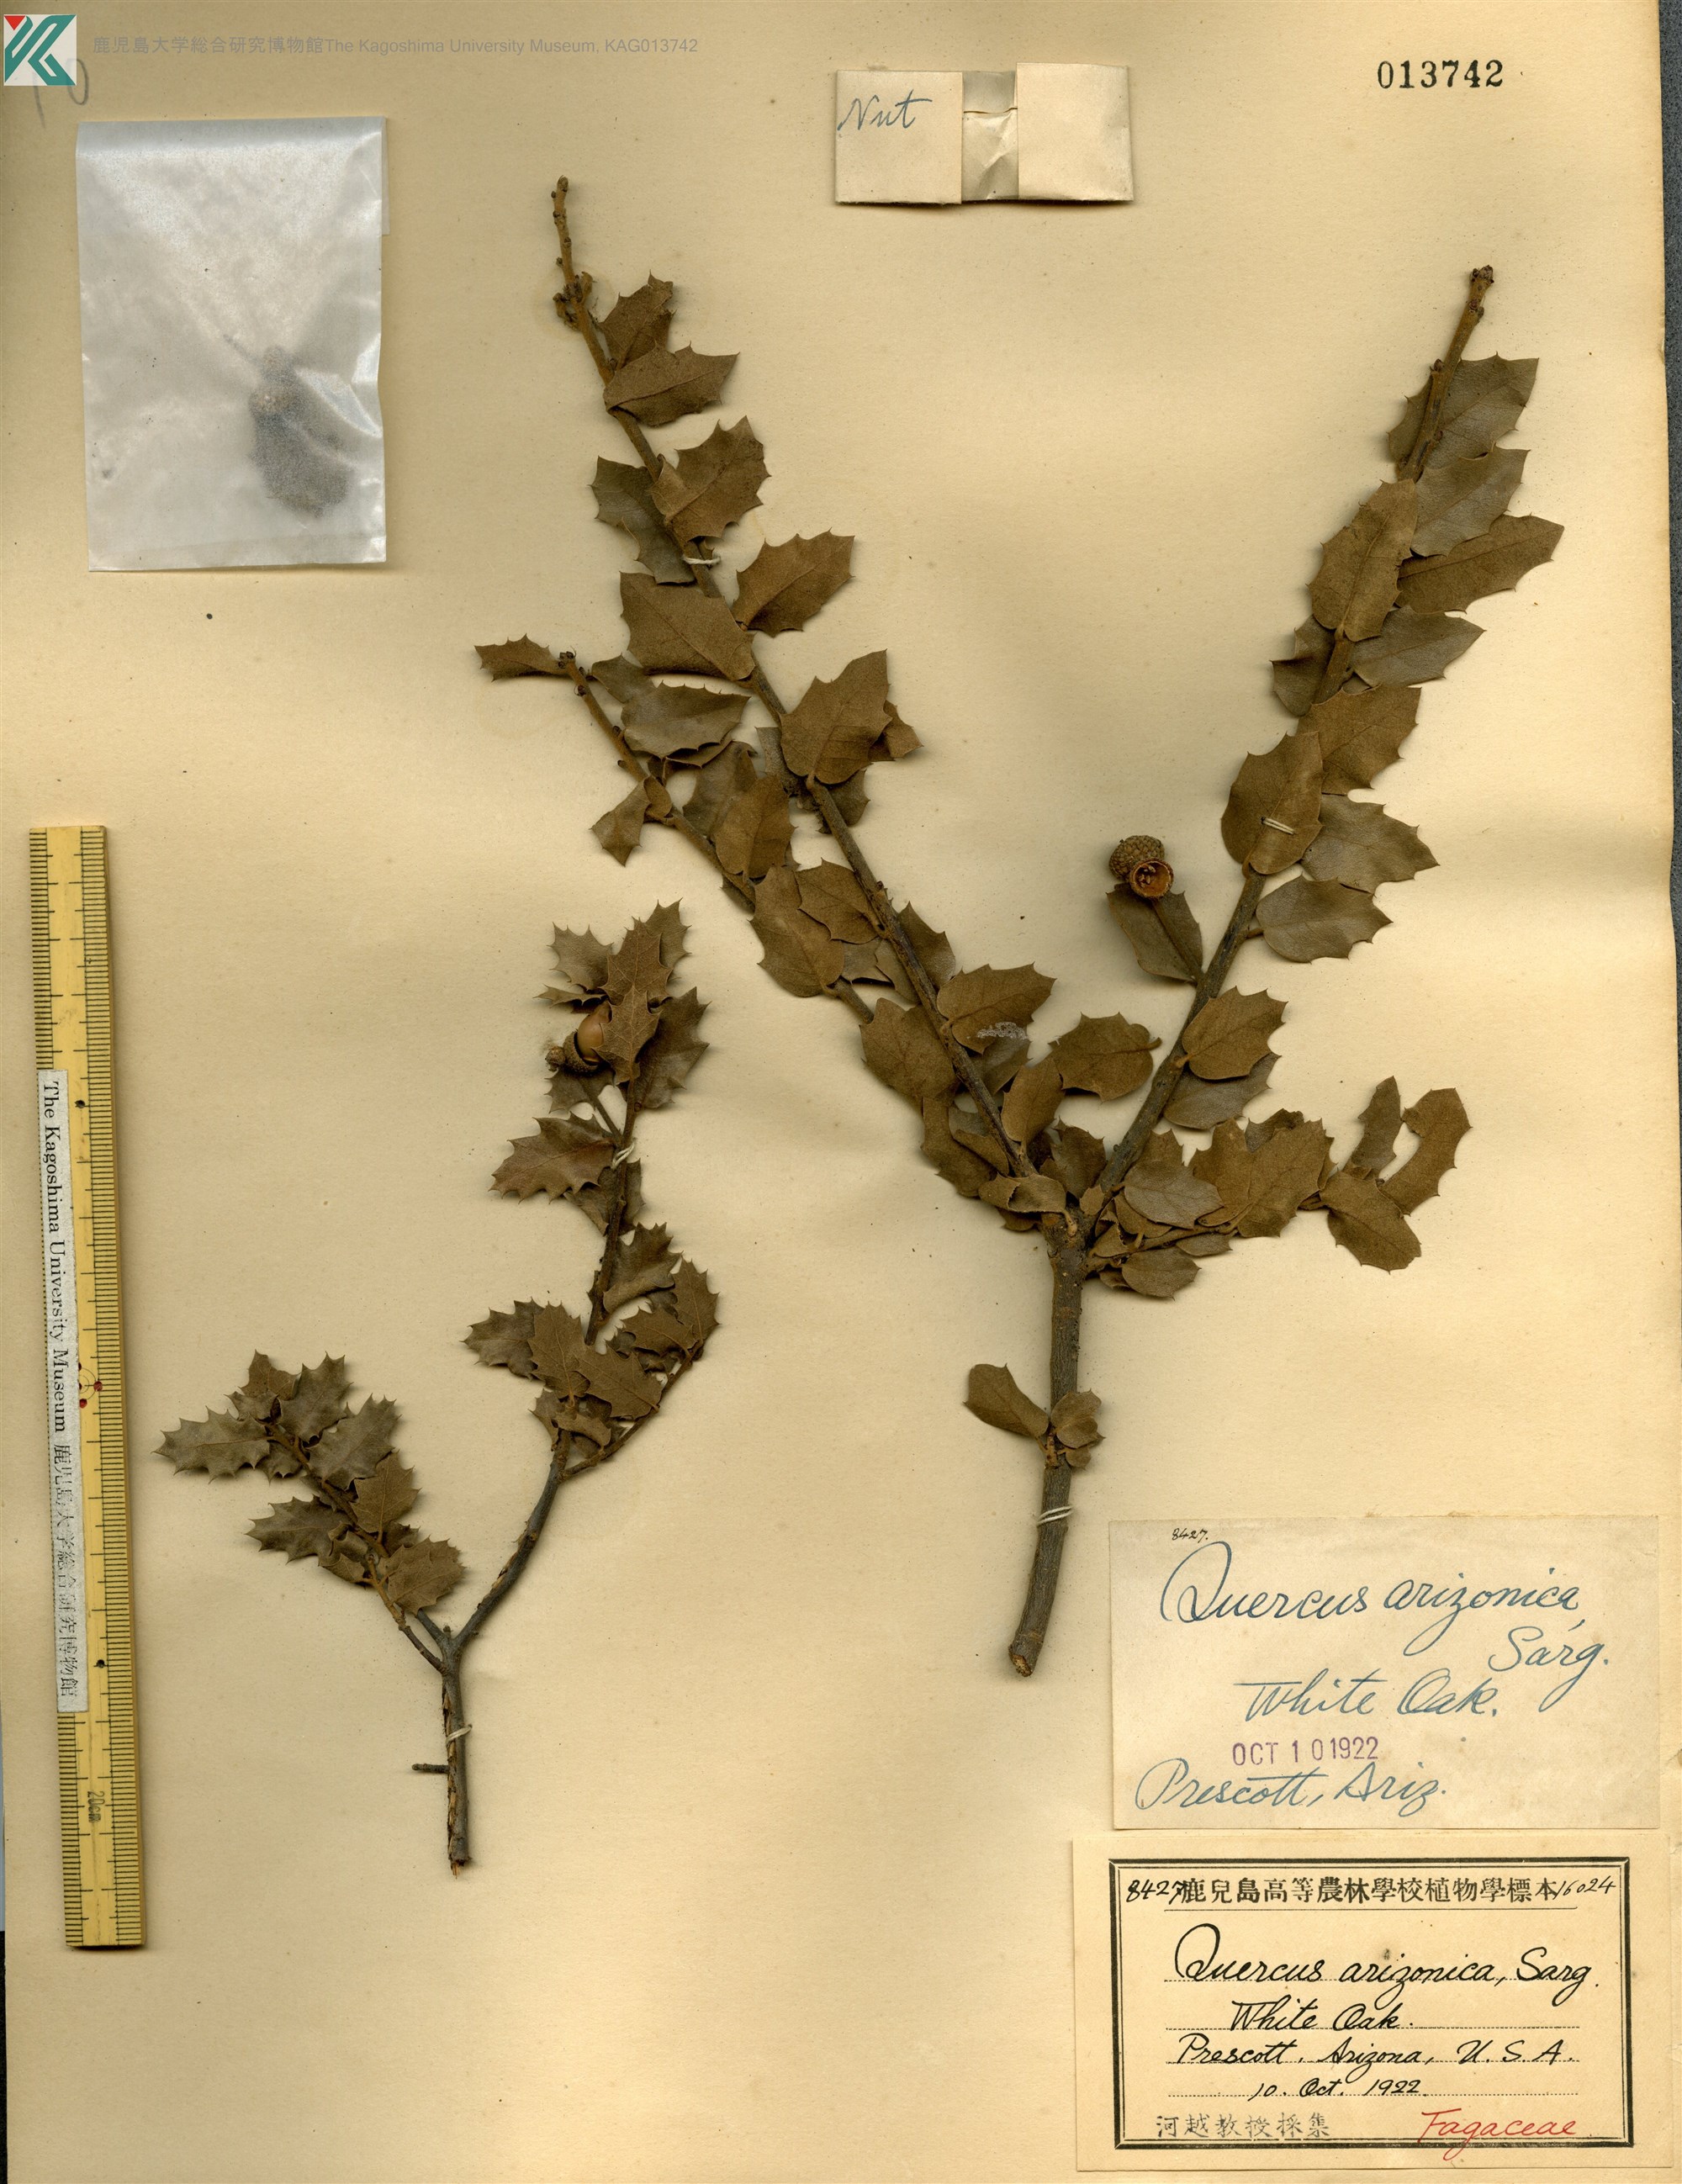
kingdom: Plantae
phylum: Tracheophyta
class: Magnoliopsida
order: Fagales
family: Fagaceae
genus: Quercus
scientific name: Quercus arizonica
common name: Arizona white oak
